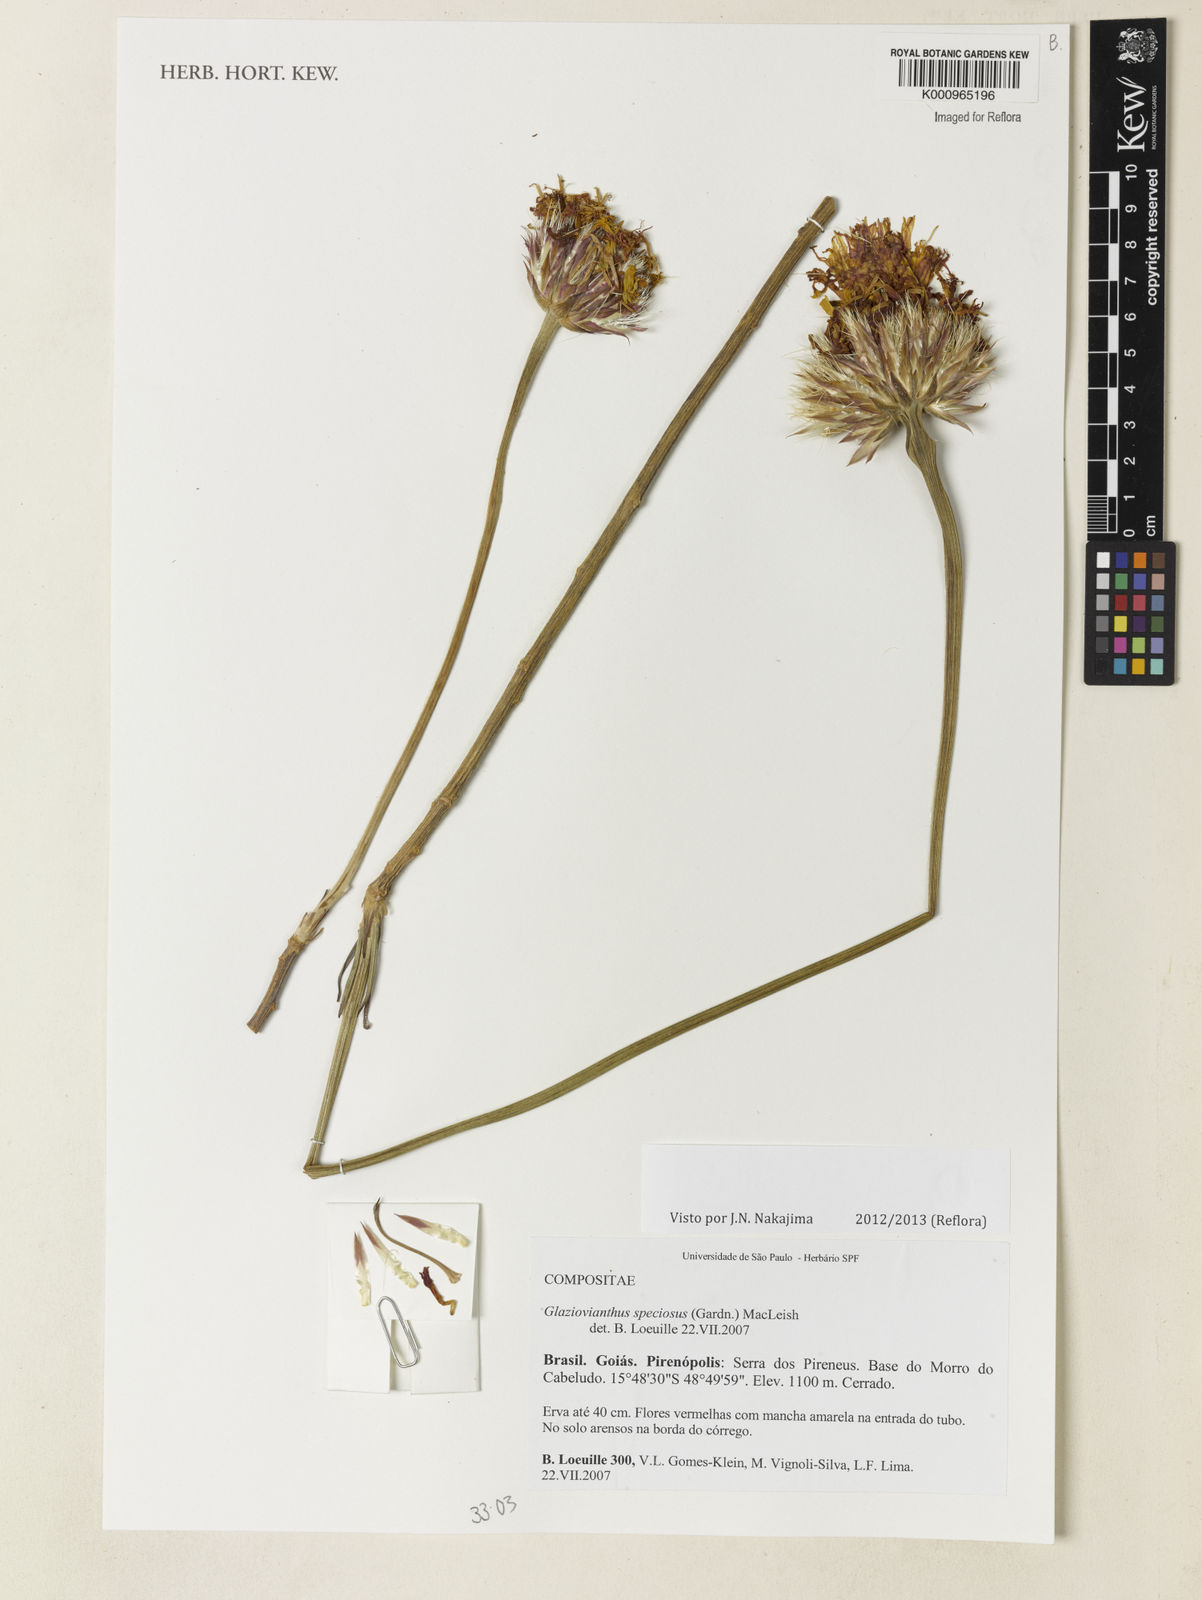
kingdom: Plantae
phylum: Tracheophyta
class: Magnoliopsida
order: Asterales
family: Asteraceae
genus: Chresta
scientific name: Chresta speciosa
